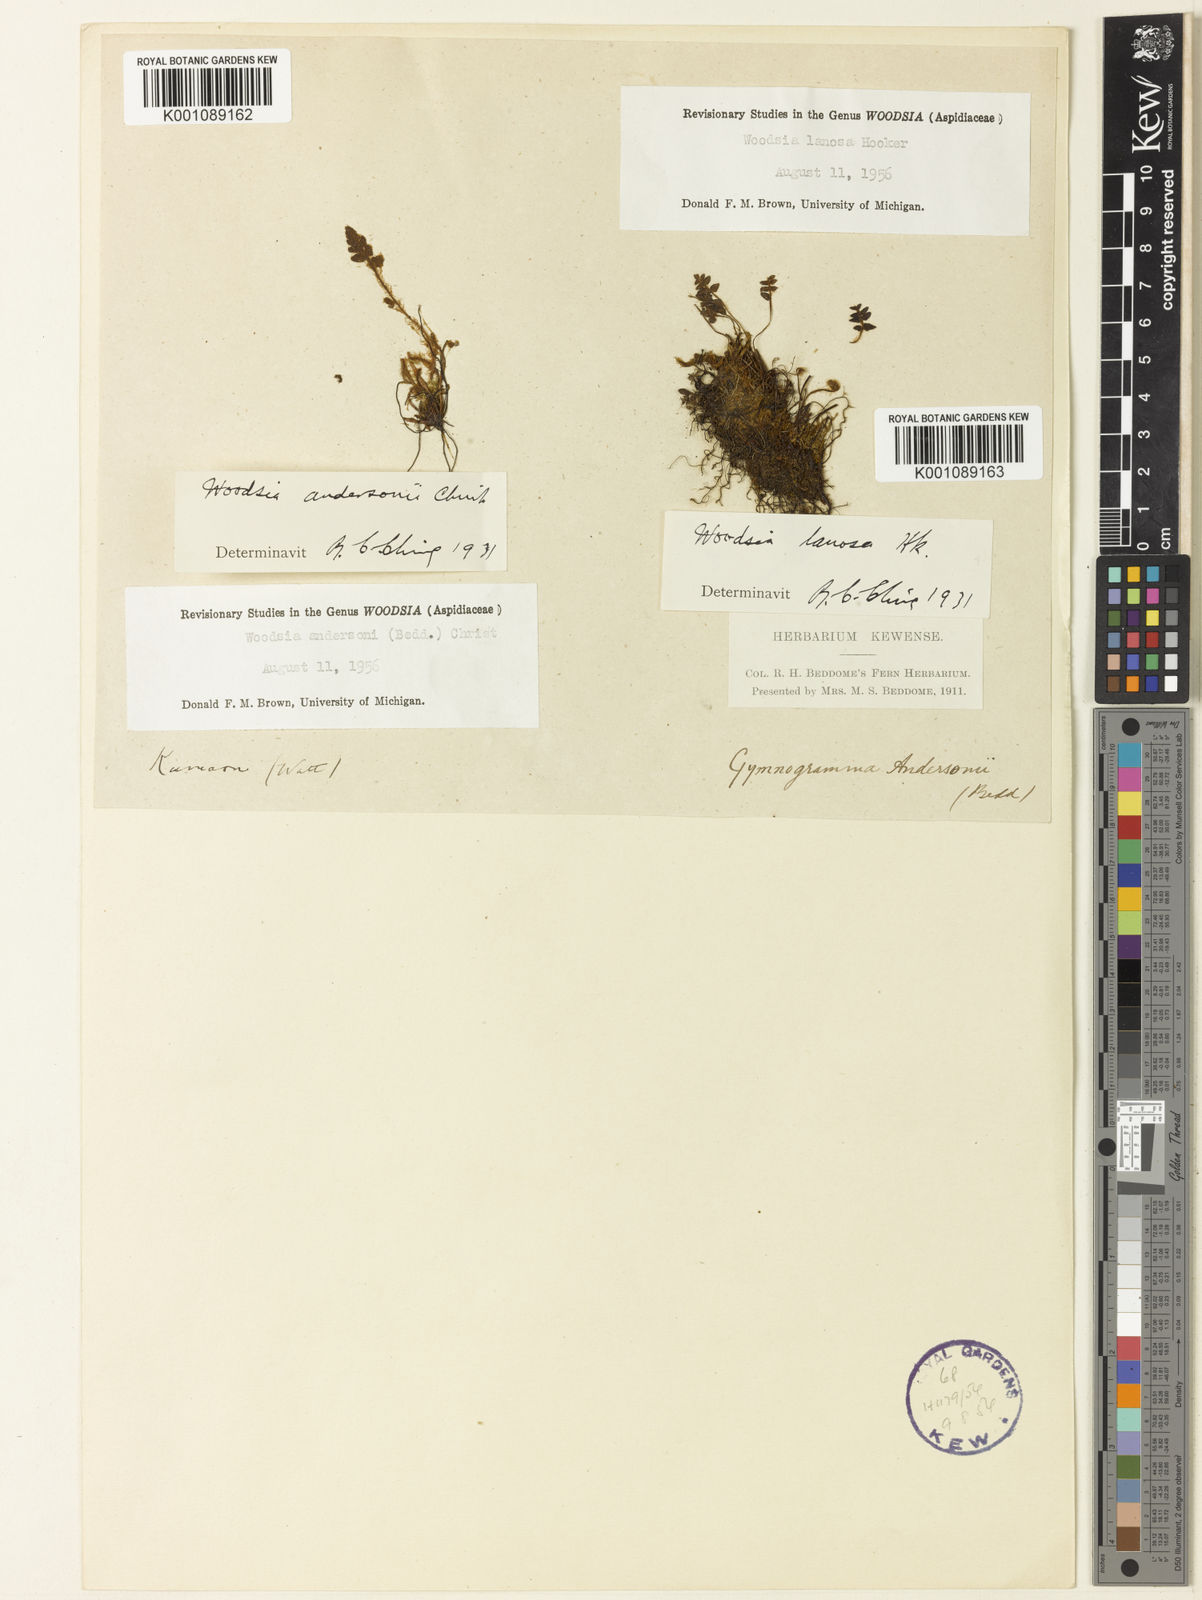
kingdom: Plantae
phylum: Tracheophyta
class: Polypodiopsida
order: Polypodiales
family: Woodsiaceae
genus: Woodsia
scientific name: Woodsia andersonii
